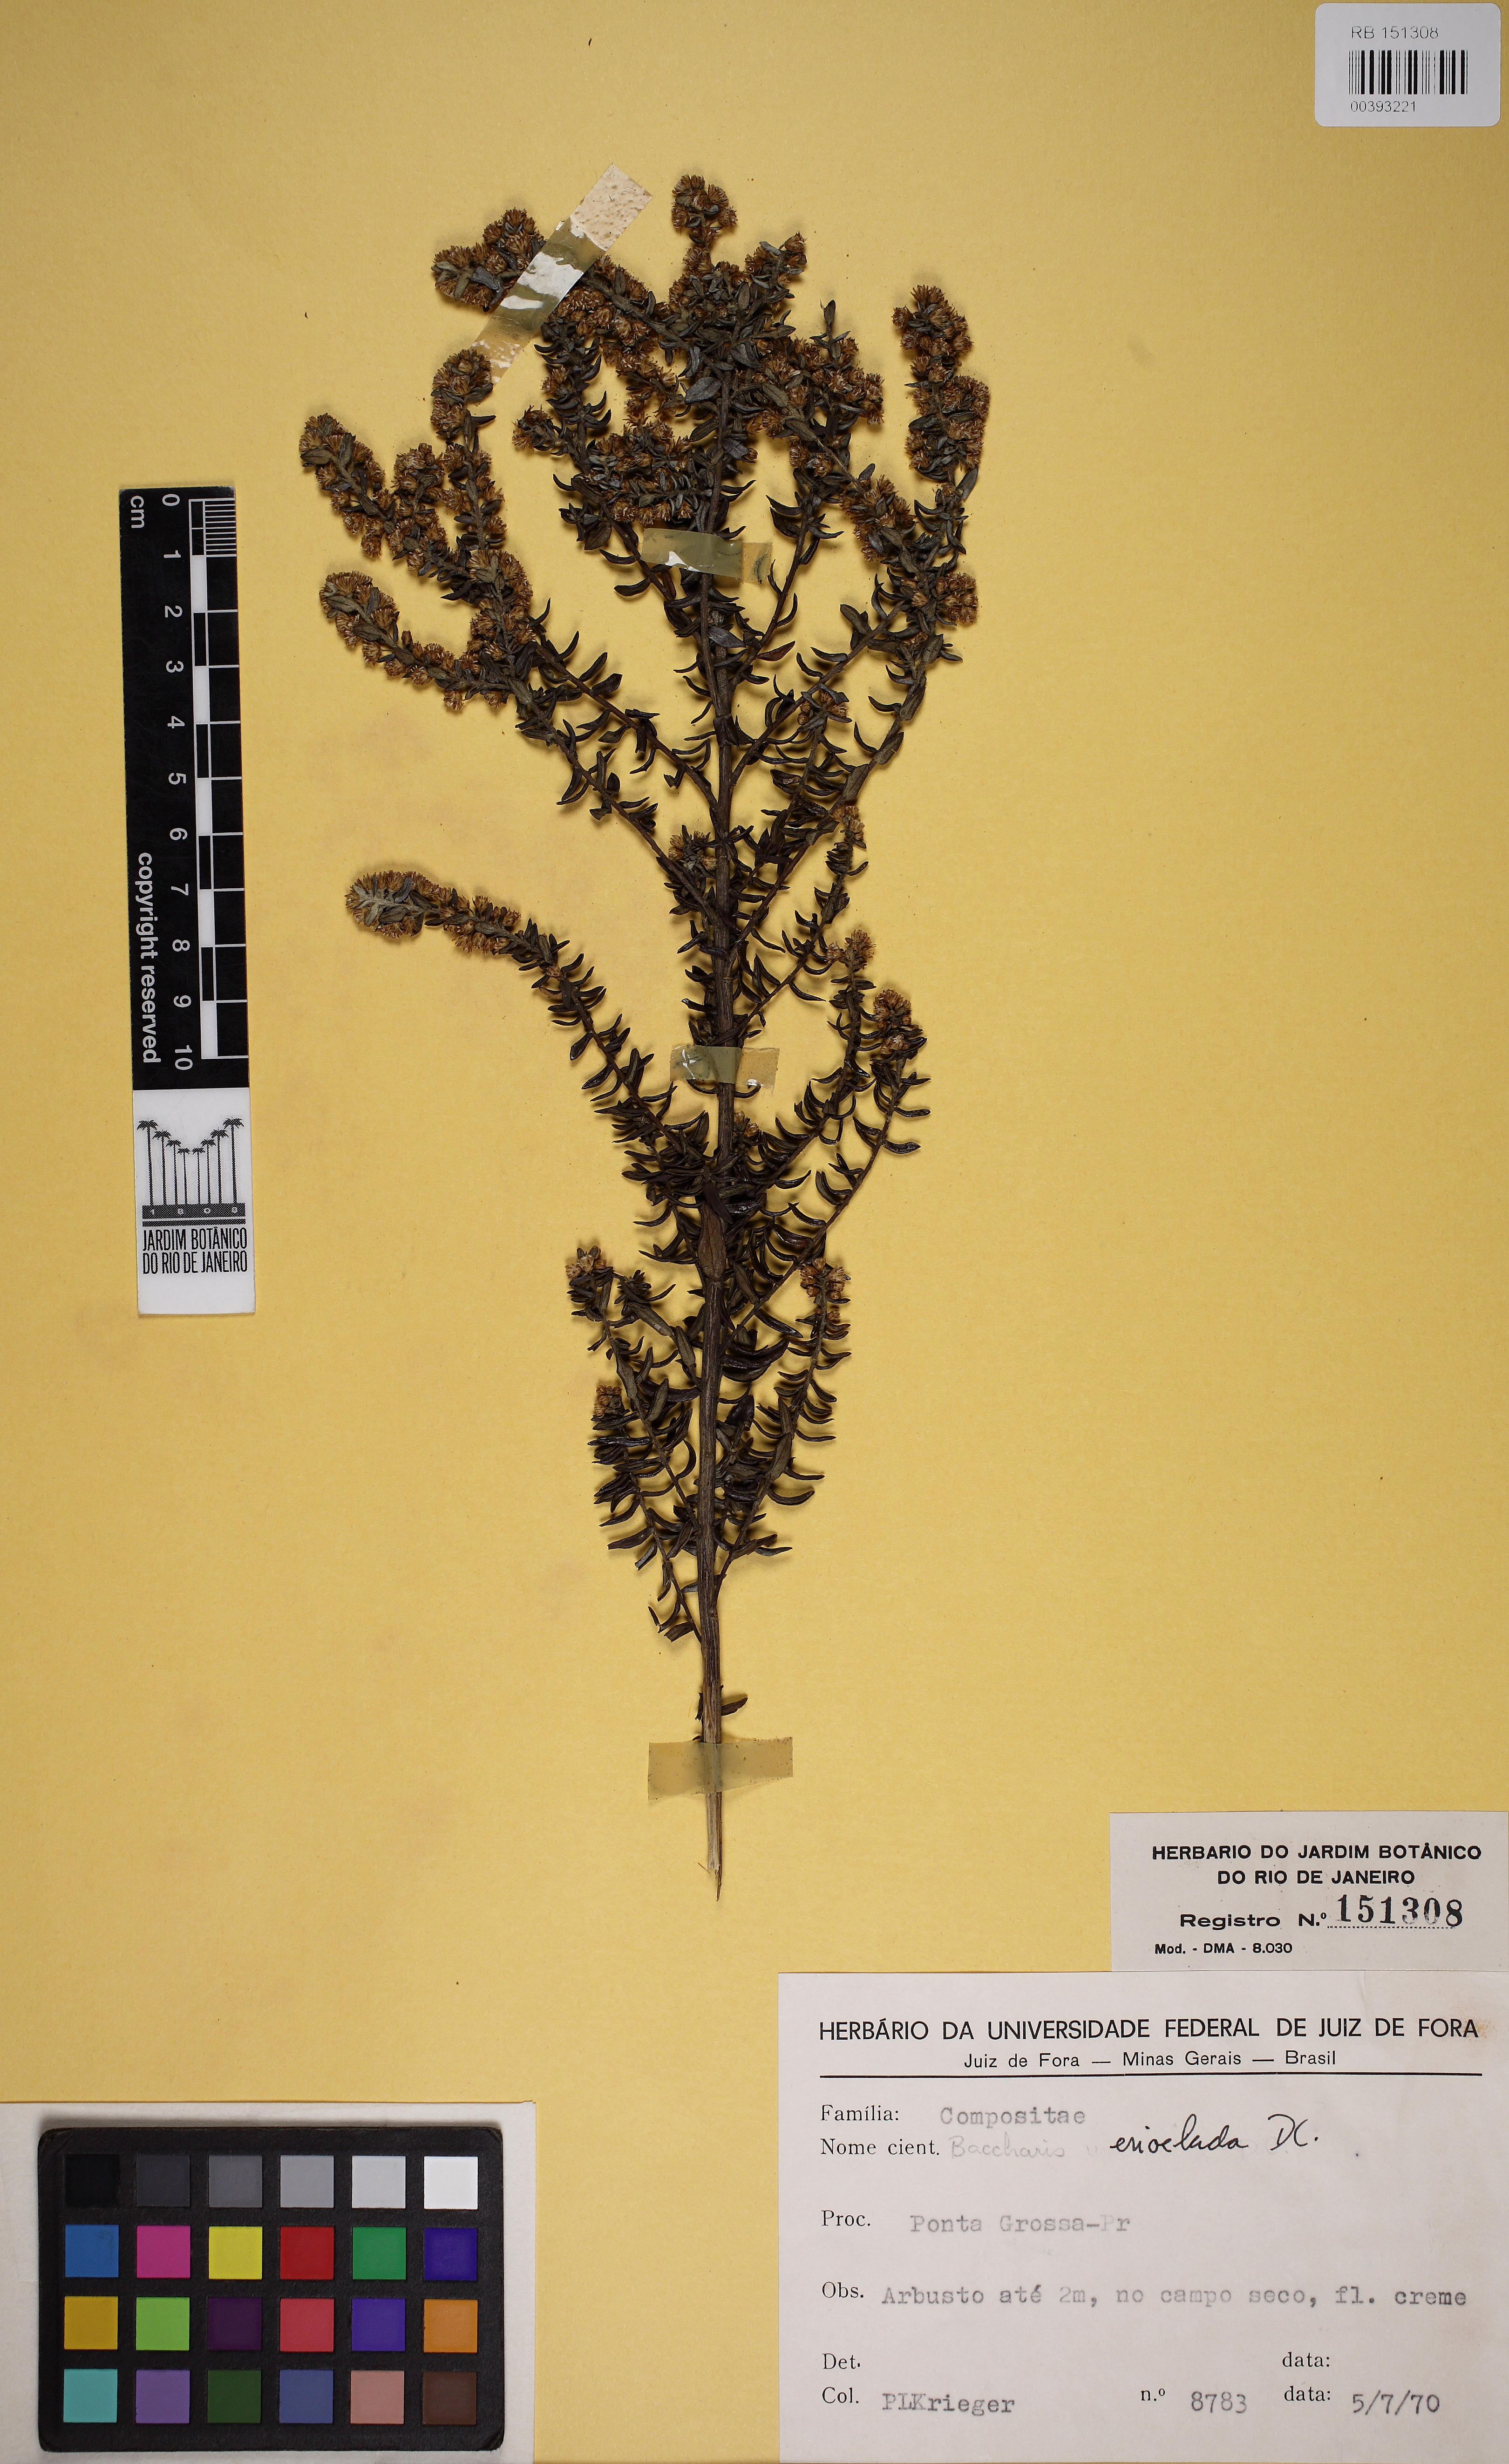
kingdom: Plantae
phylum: Tracheophyta
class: Magnoliopsida
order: Asterales
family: Asteraceae
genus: Baccharis
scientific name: Baccharis erioclada
